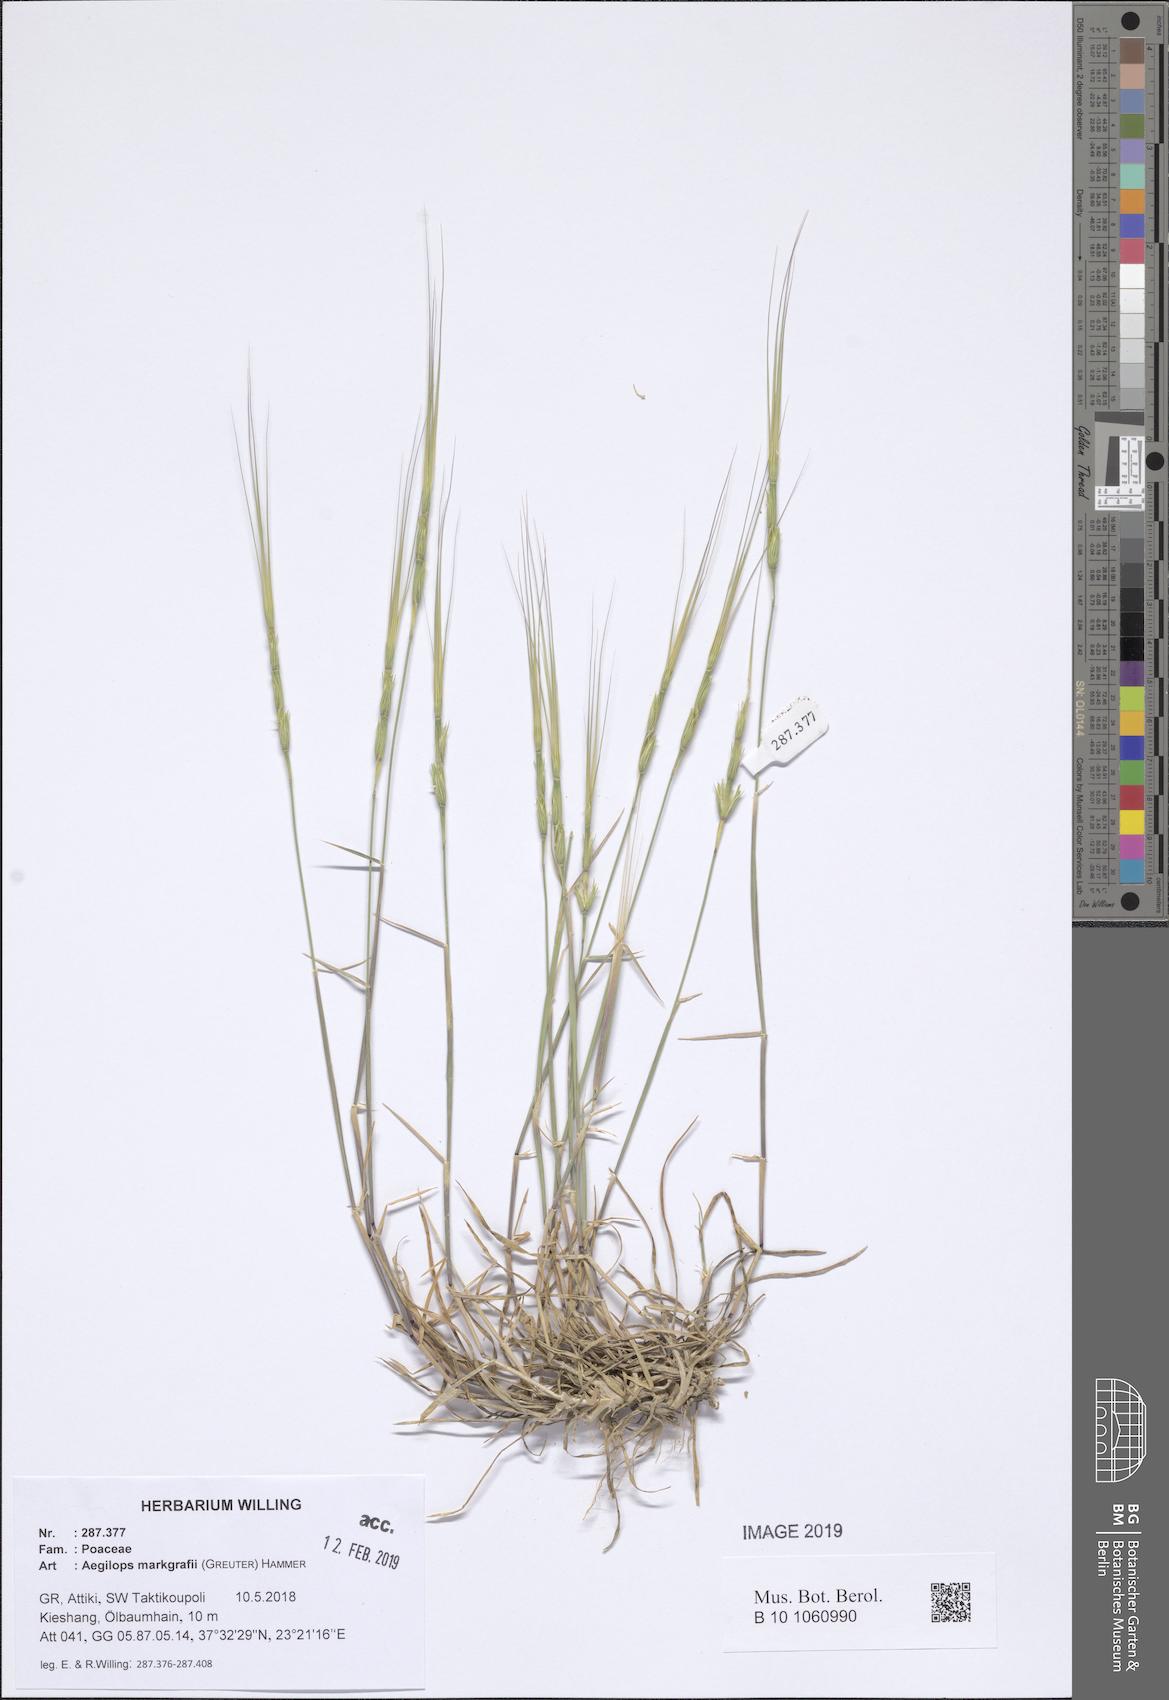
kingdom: Plantae
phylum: Tracheophyta
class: Liliopsida
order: Poales
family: Poaceae
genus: Aegilops
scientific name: Aegilops caudata
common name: Cretan hard-grass
